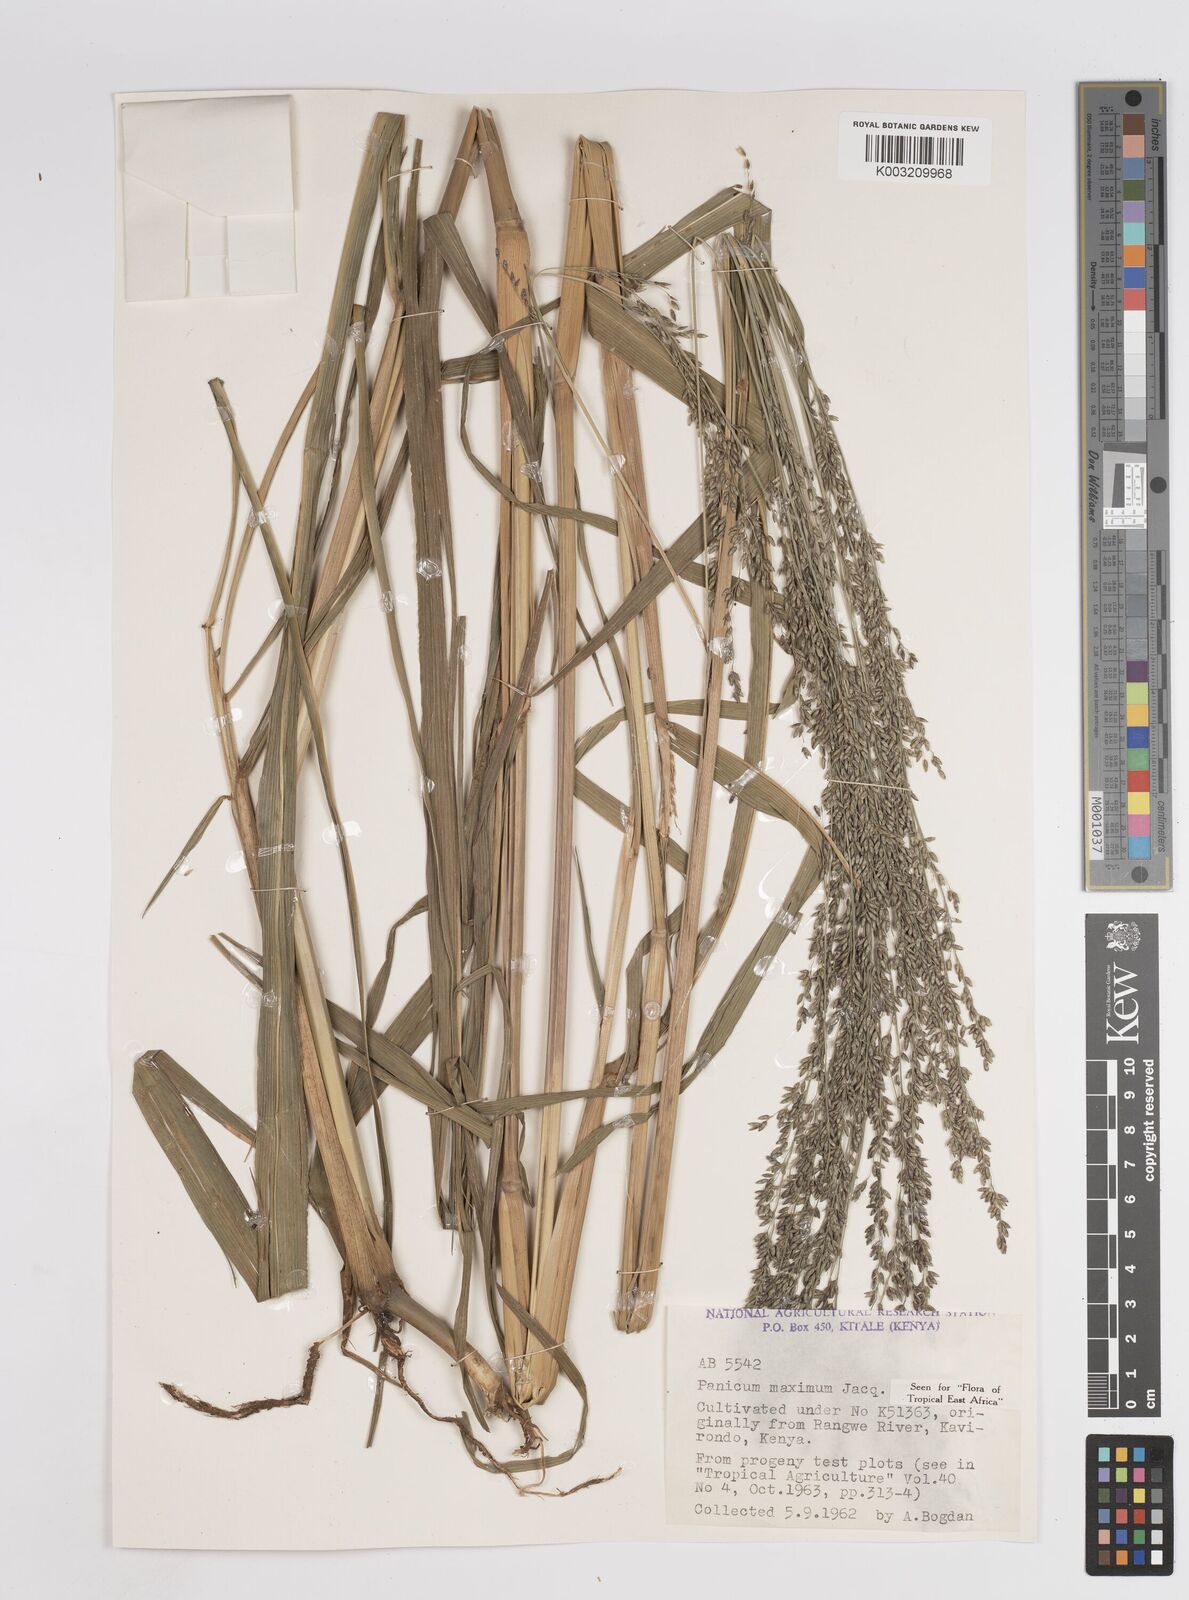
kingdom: Plantae
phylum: Tracheophyta
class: Liliopsida
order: Poales
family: Poaceae
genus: Megathyrsus
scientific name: Megathyrsus maximus
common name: Guineagrass
